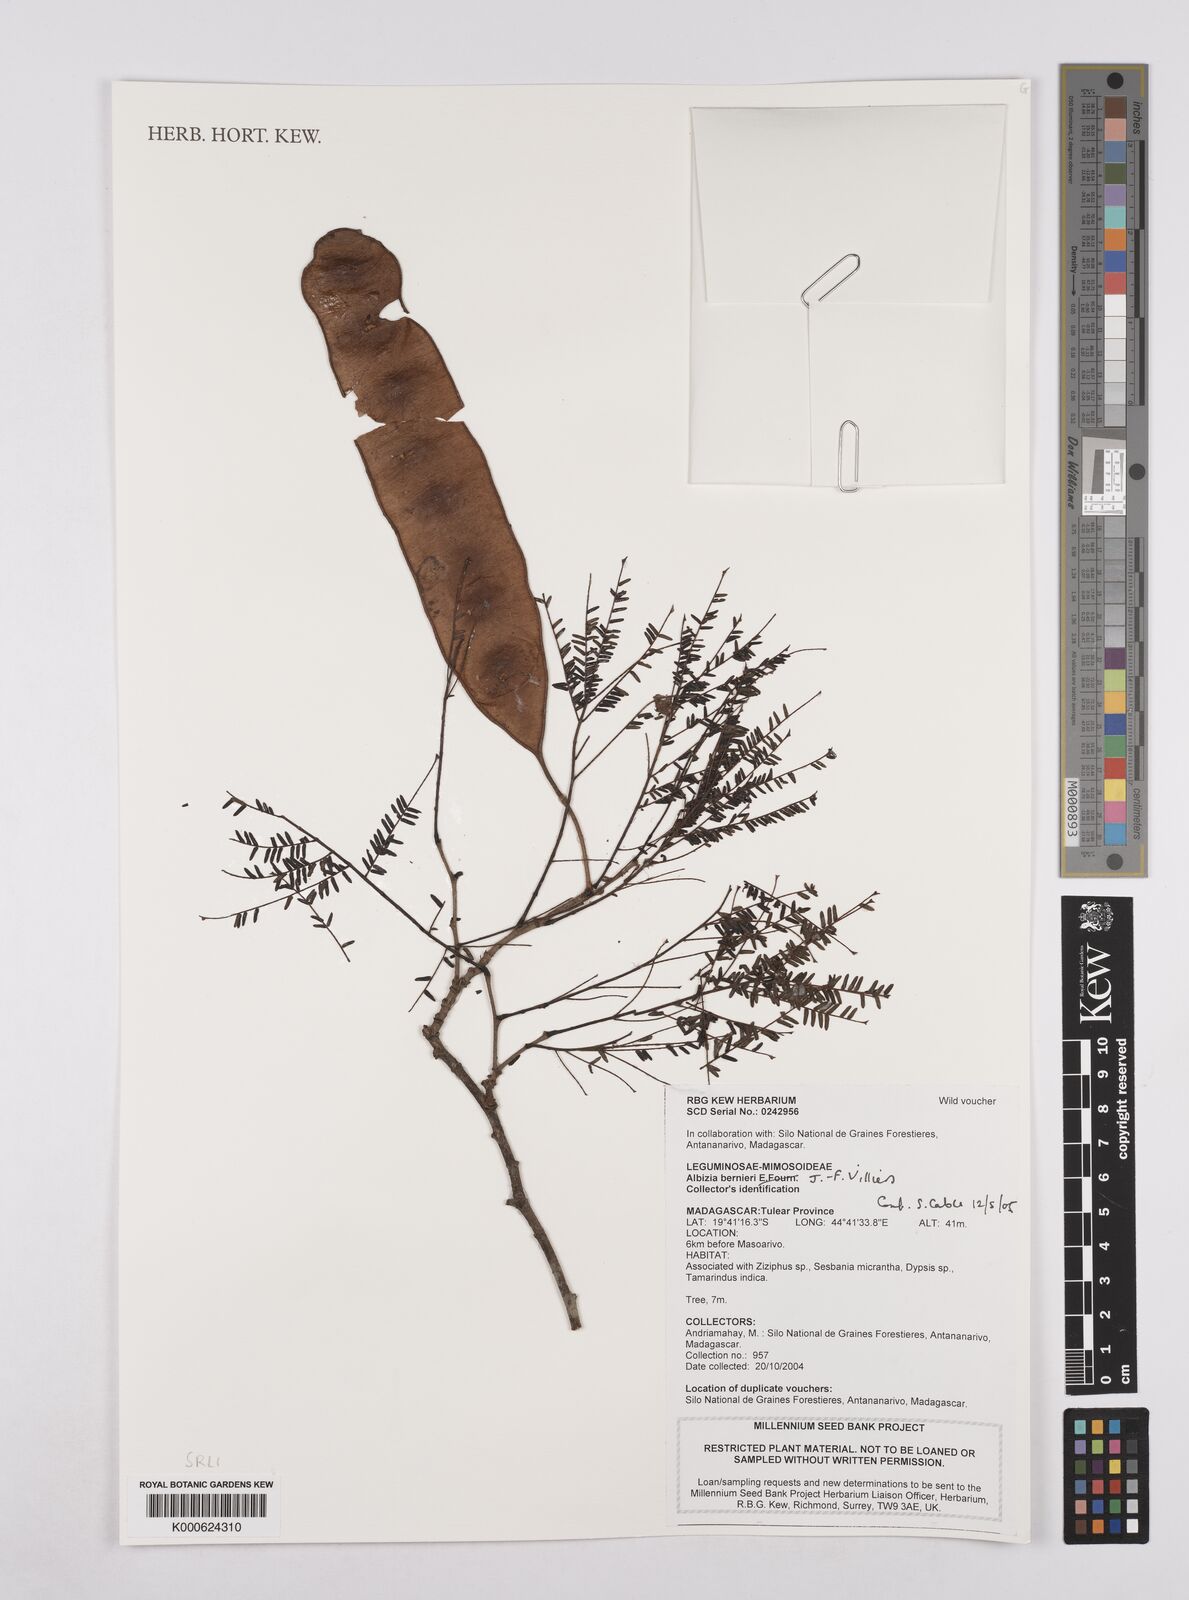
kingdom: Plantae
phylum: Tracheophyta
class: Magnoliopsida
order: Fabales
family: Fabaceae
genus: Albizia
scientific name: Albizia bernieri
